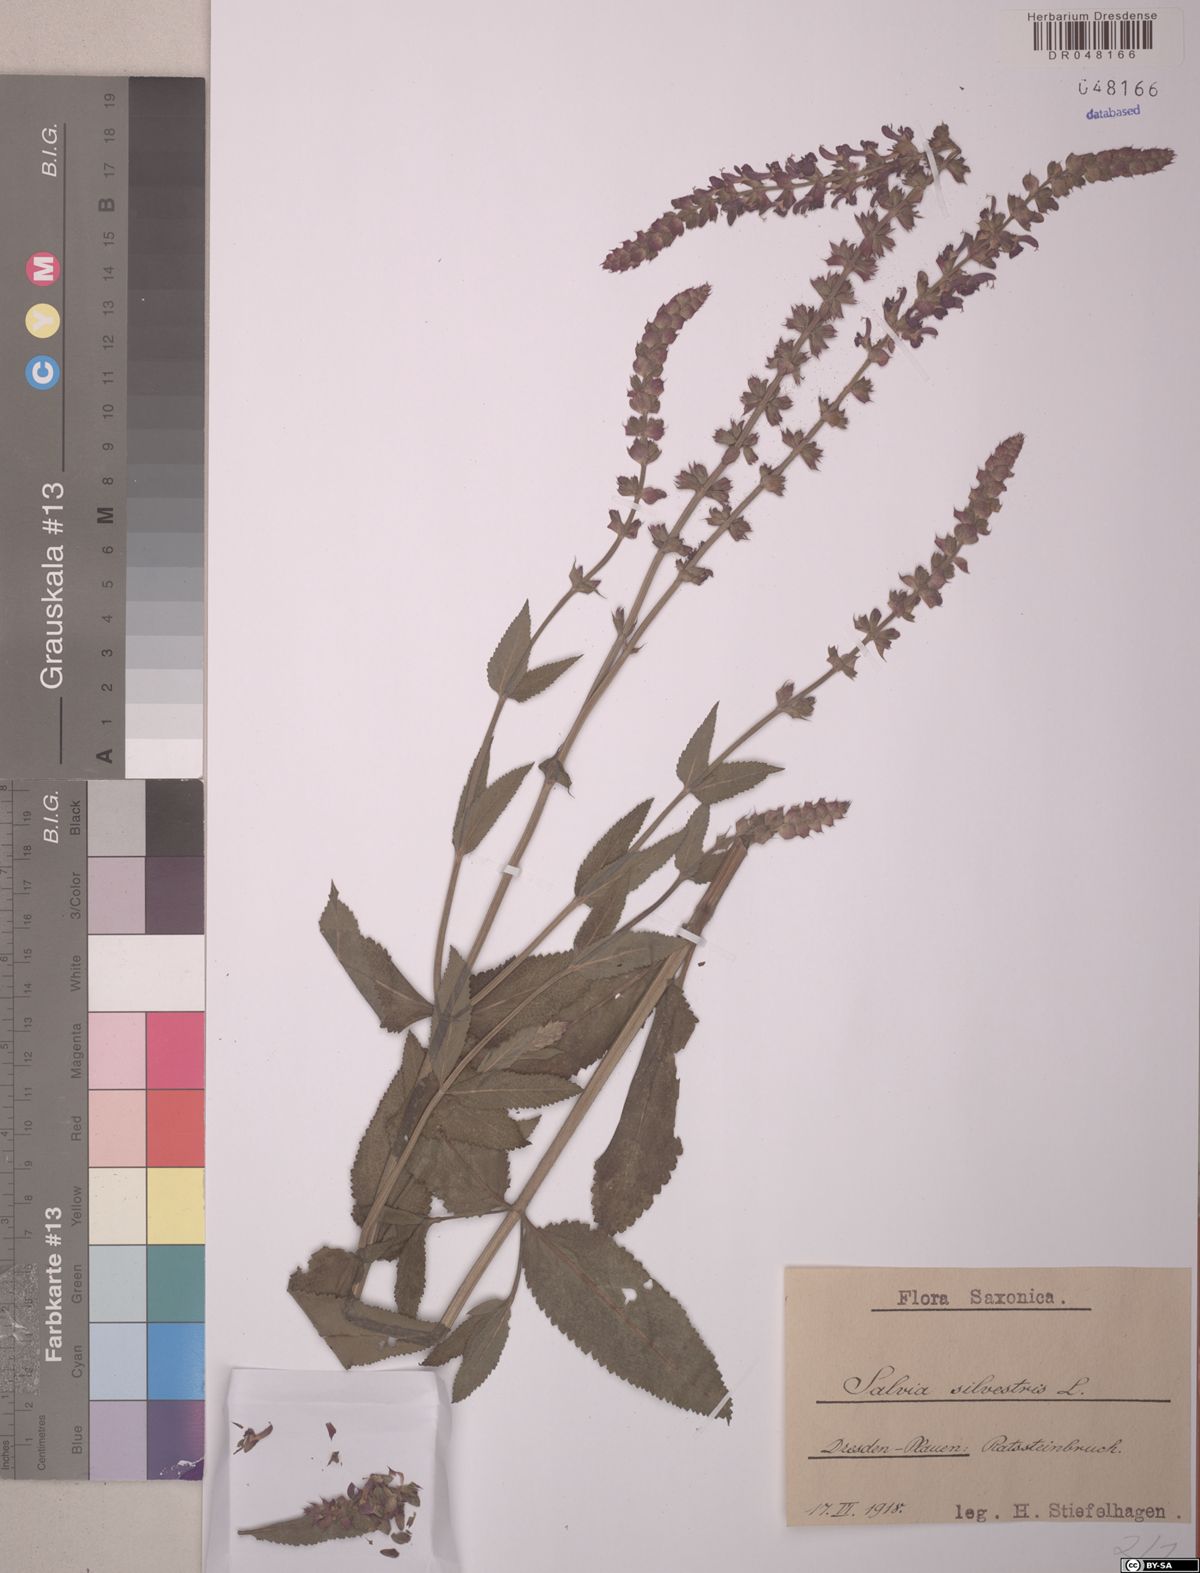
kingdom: Plantae
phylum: Tracheophyta
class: Magnoliopsida
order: Lamiales
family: Lamiaceae
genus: Salvia
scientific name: Salvia sylvestris
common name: Woodland sage
